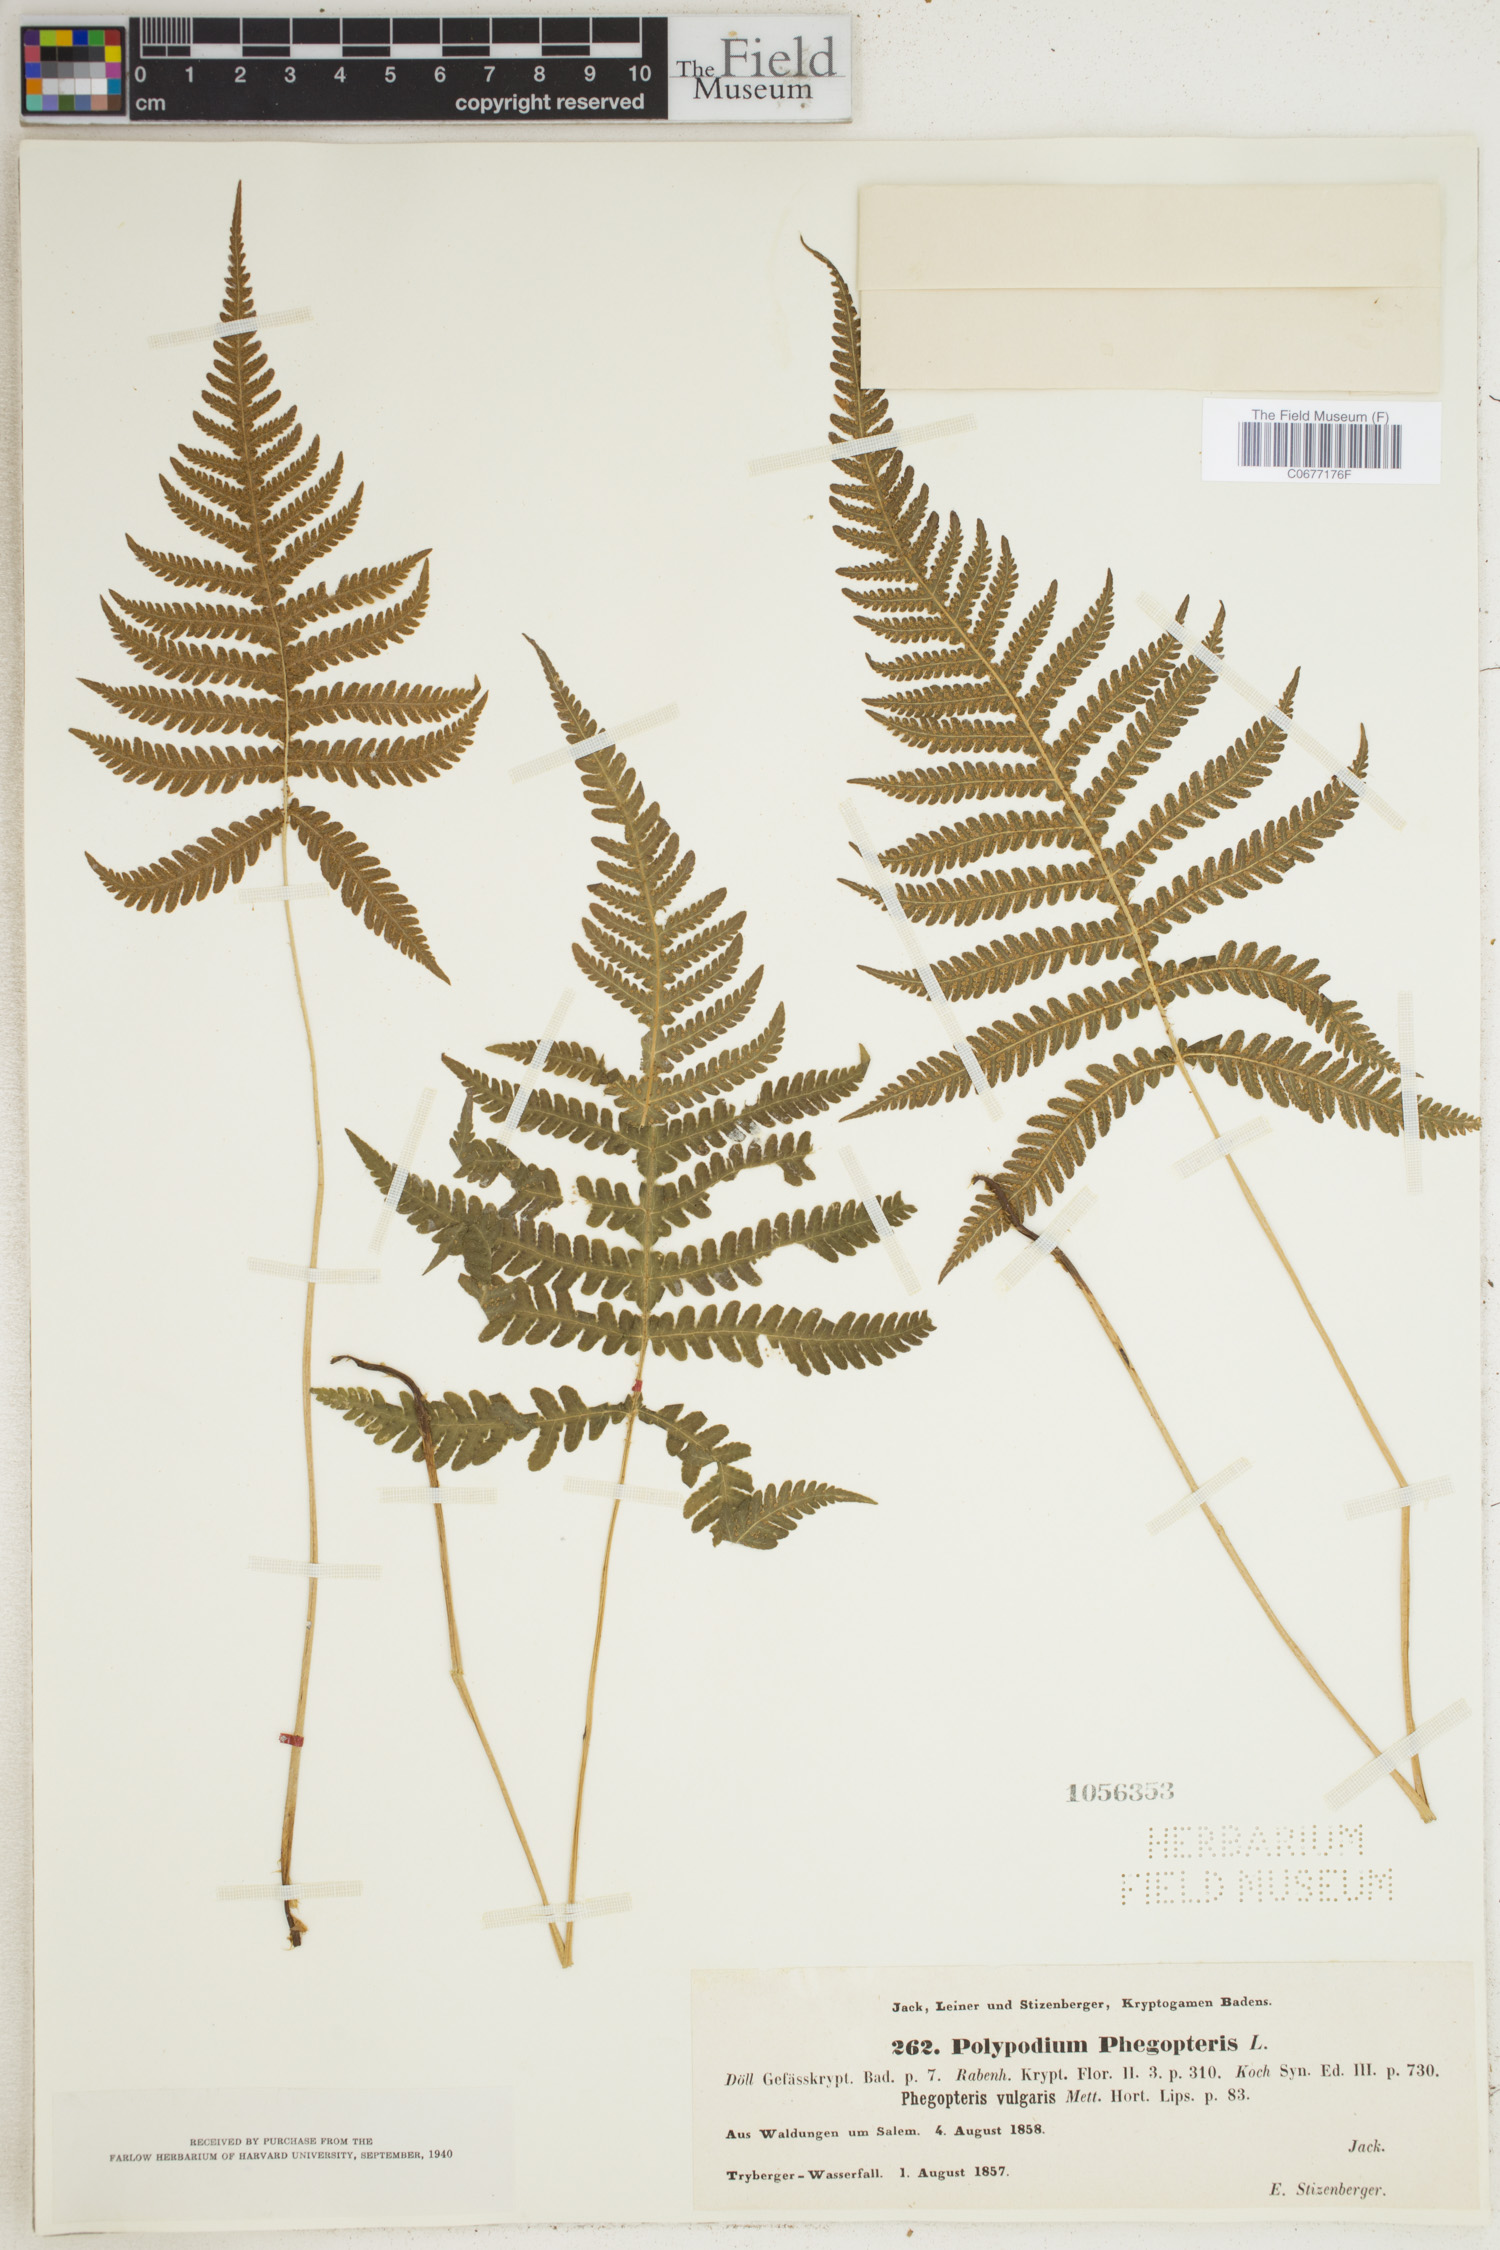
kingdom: Plantae
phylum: Tracheophyta
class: Polypodiopsida
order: Polypodiales
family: Thelypteridaceae
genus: Phegopteris
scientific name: Phegopteris connectilis
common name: Beech fern
